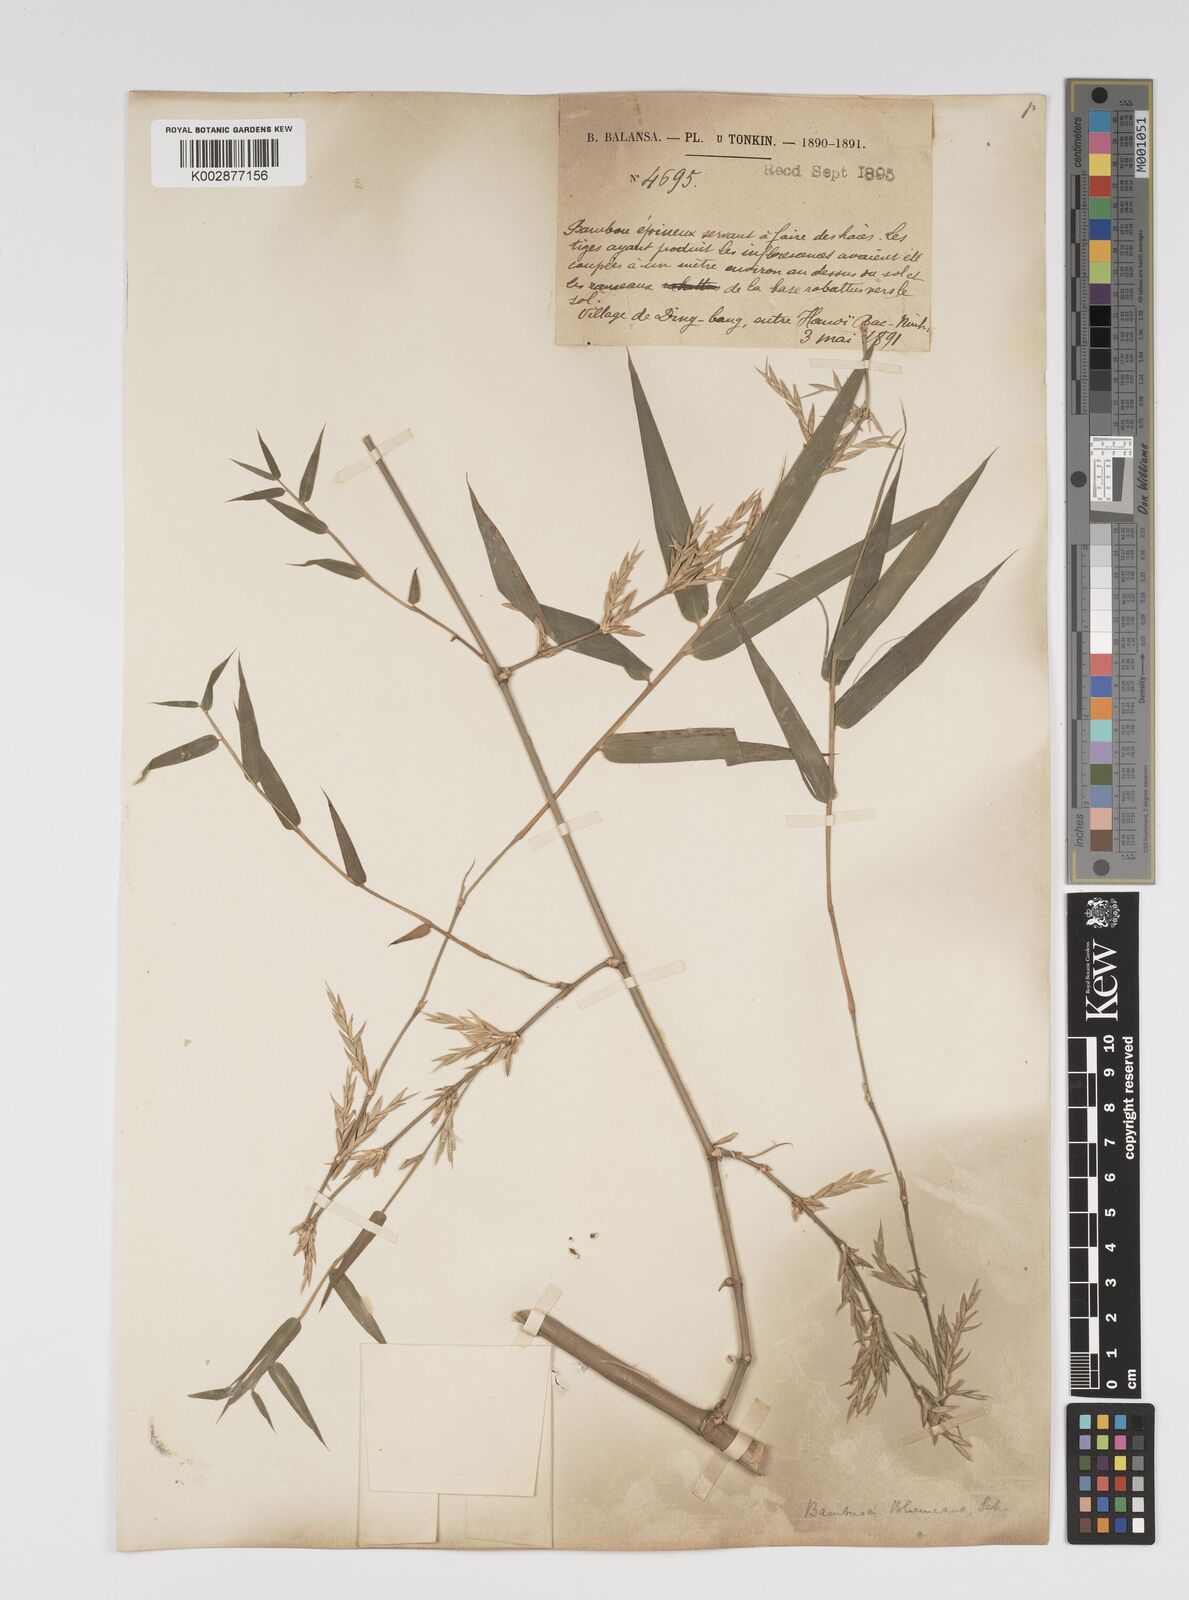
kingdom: Plantae
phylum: Tracheophyta
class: Liliopsida
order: Poales
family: Poaceae
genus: Bambusa
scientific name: Bambusa spinosa
